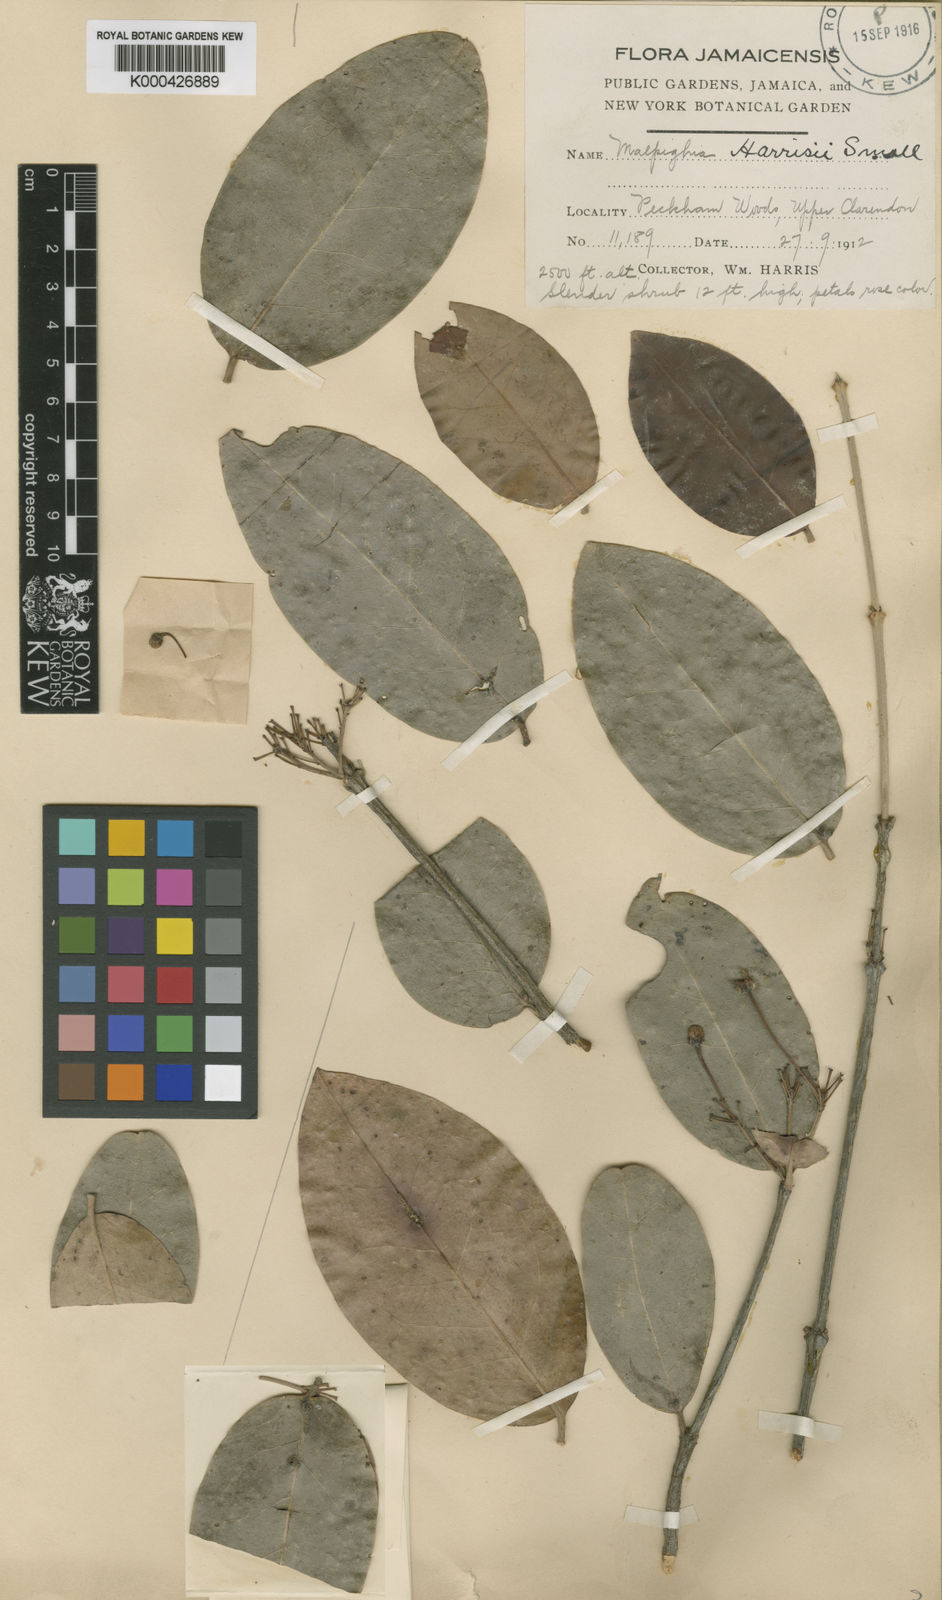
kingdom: Plantae
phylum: Tracheophyta
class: Magnoliopsida
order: Malpighiales
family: Malpighiaceae
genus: Malpighia
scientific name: Malpighia harrisii
